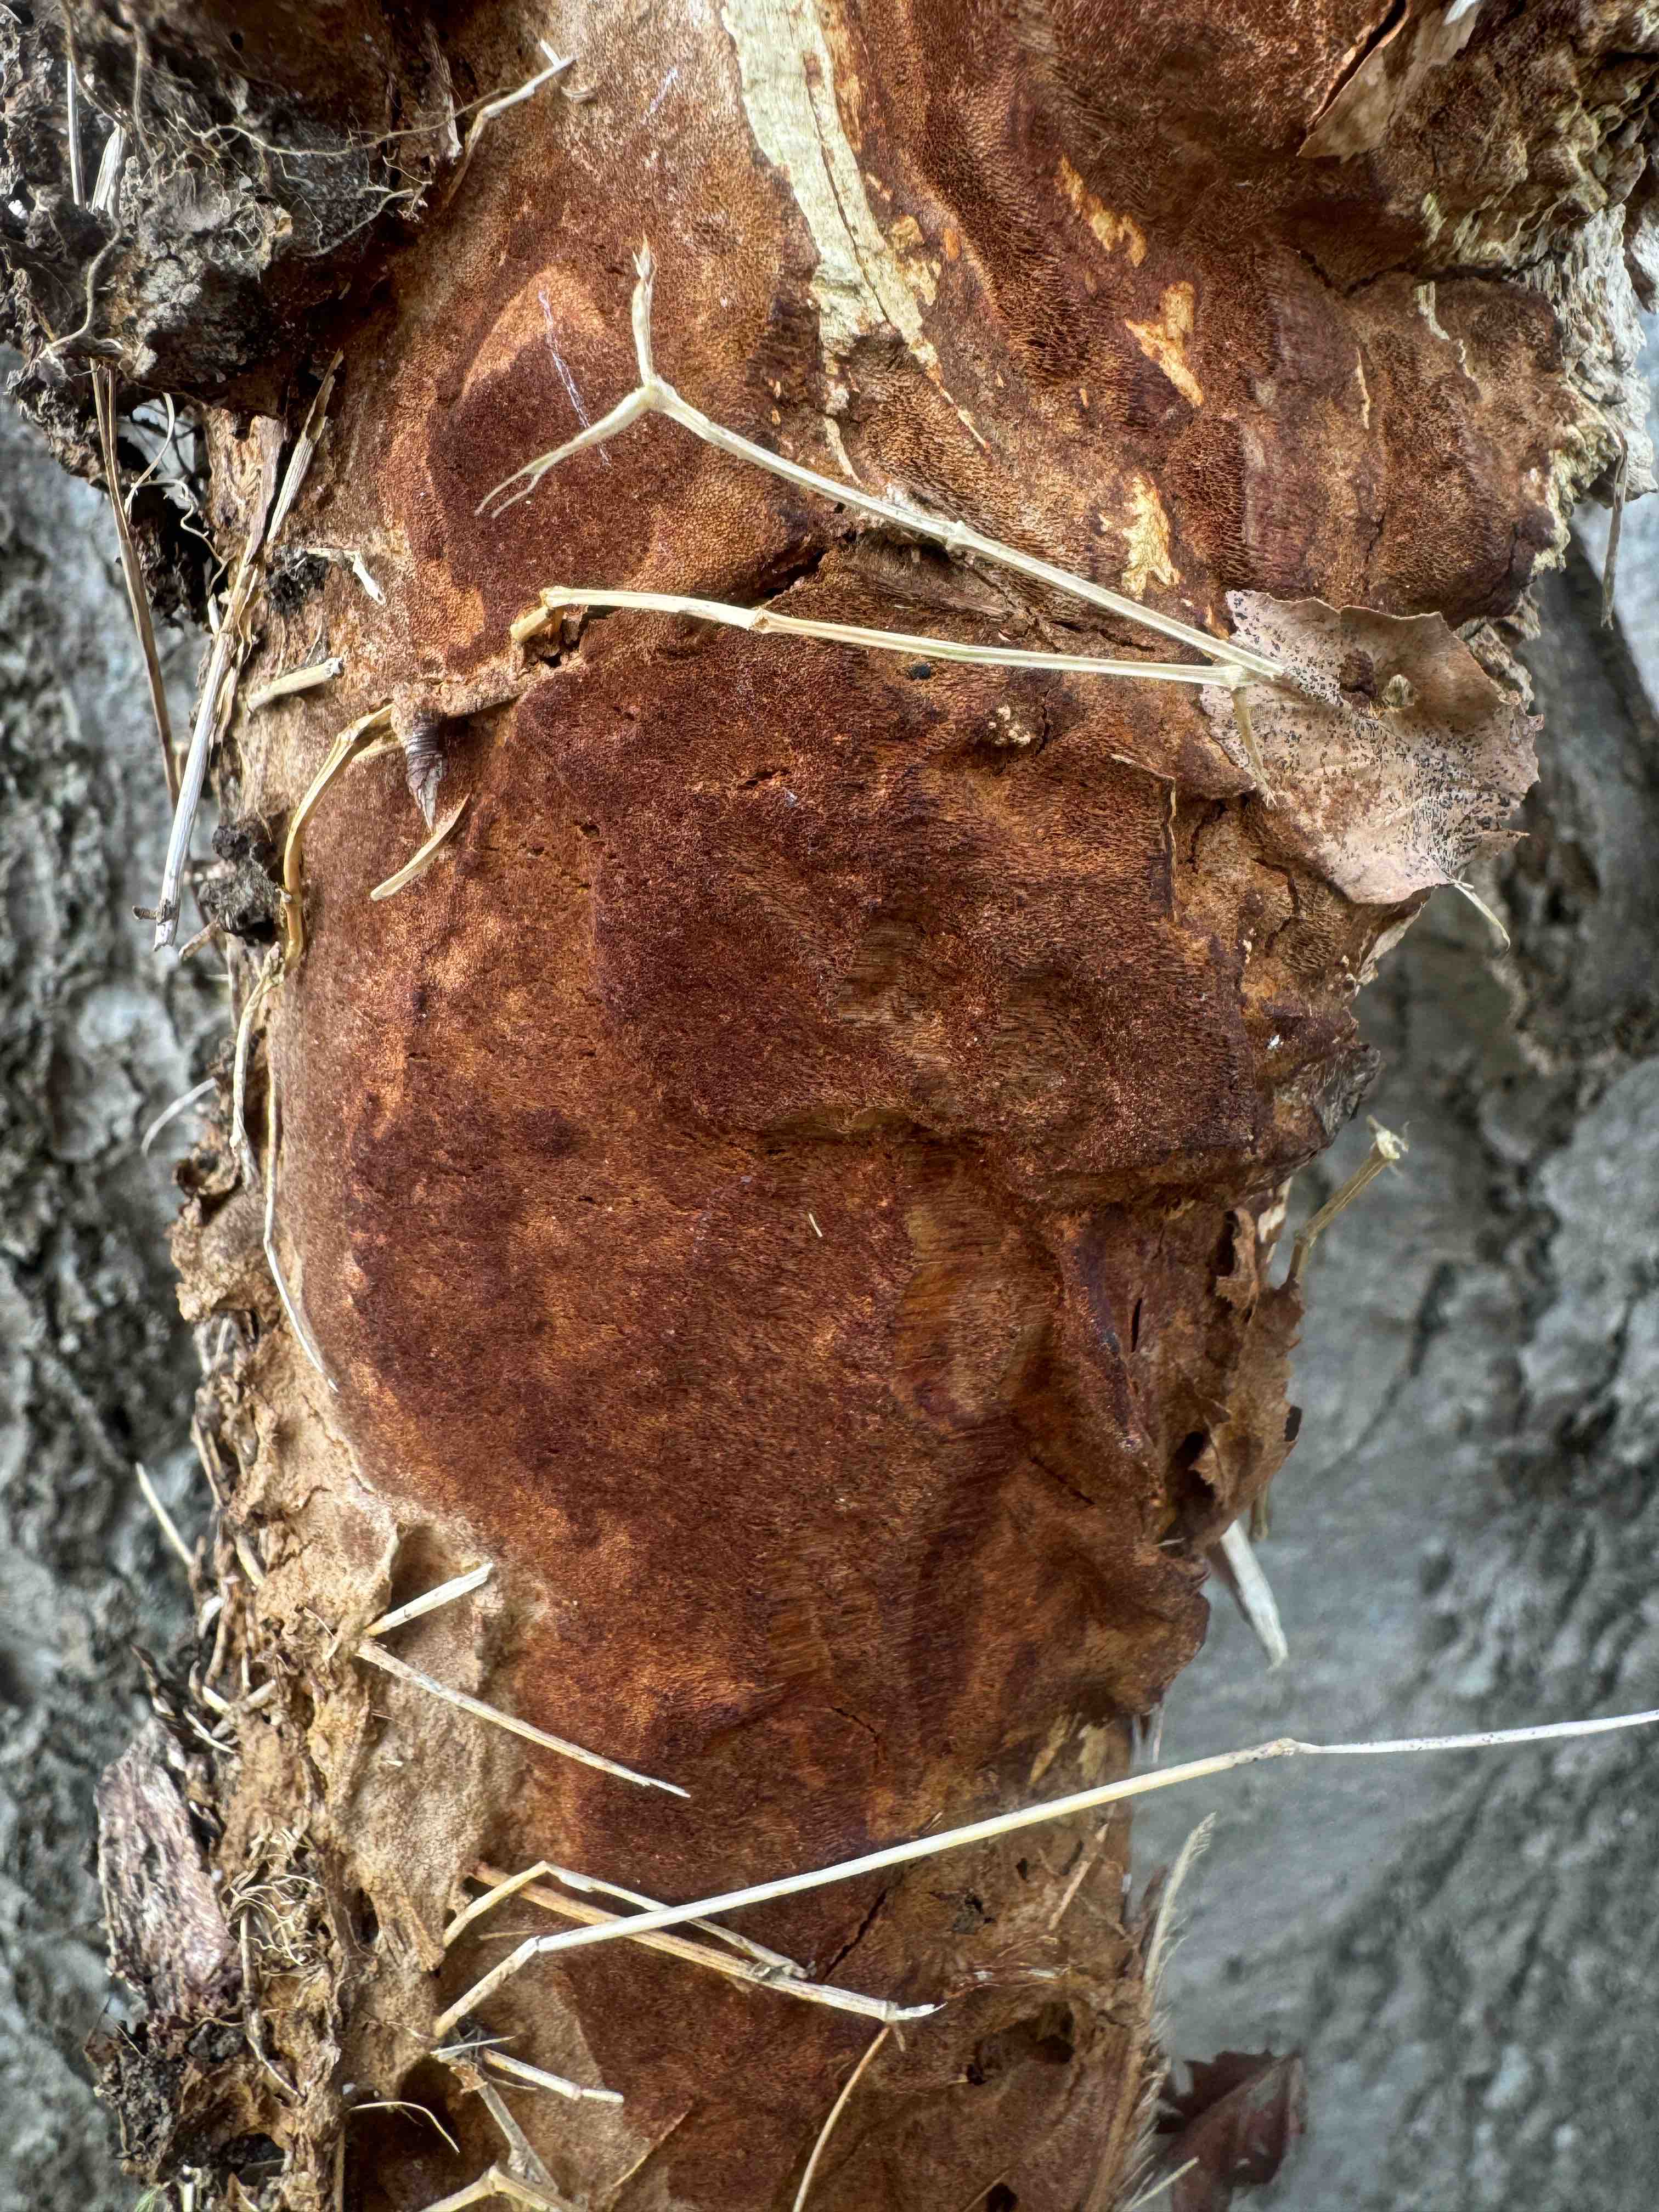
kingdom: Fungi
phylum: Basidiomycota
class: Agaricomycetes
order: Hymenochaetales
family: Hymenochaetaceae
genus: Fuscoporia
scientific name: Fuscoporia ferrea
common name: skorpe-ildporesvamp
